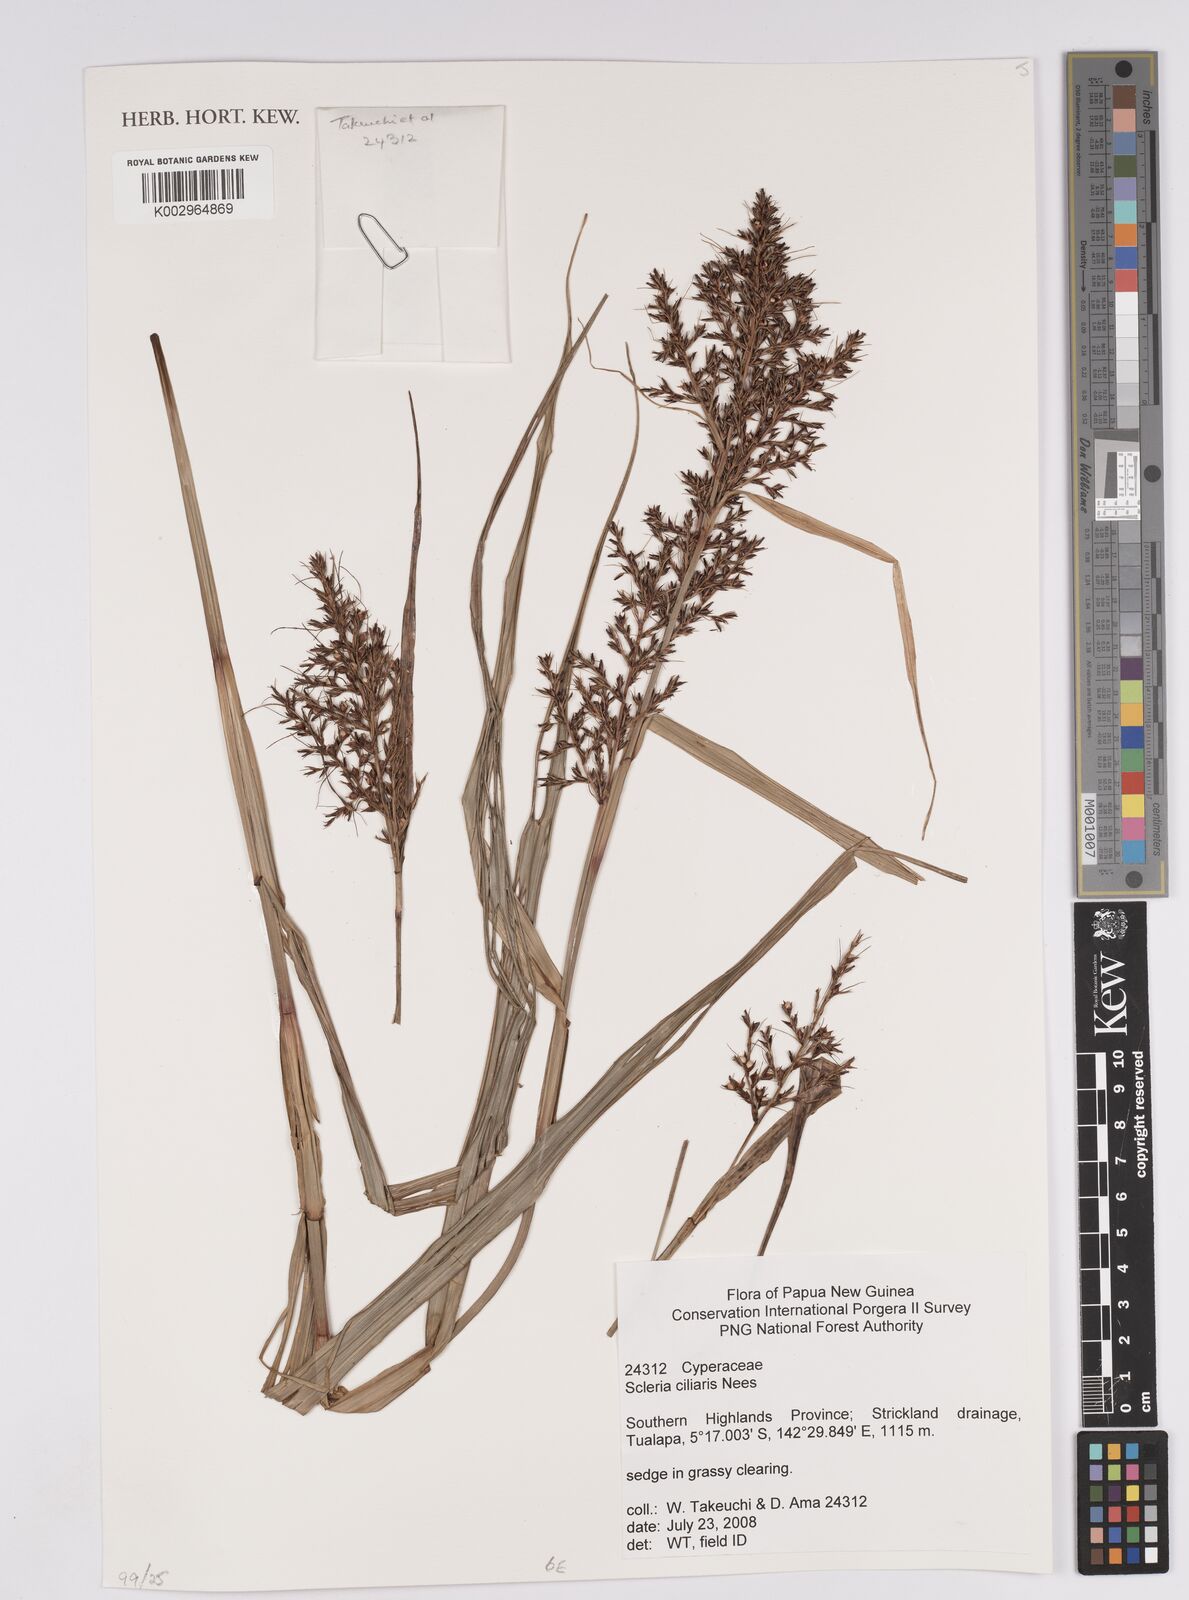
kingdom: Plantae
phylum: Tracheophyta
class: Liliopsida
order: Poales
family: Cyperaceae
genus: Scleria
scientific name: Scleria ciliaris
